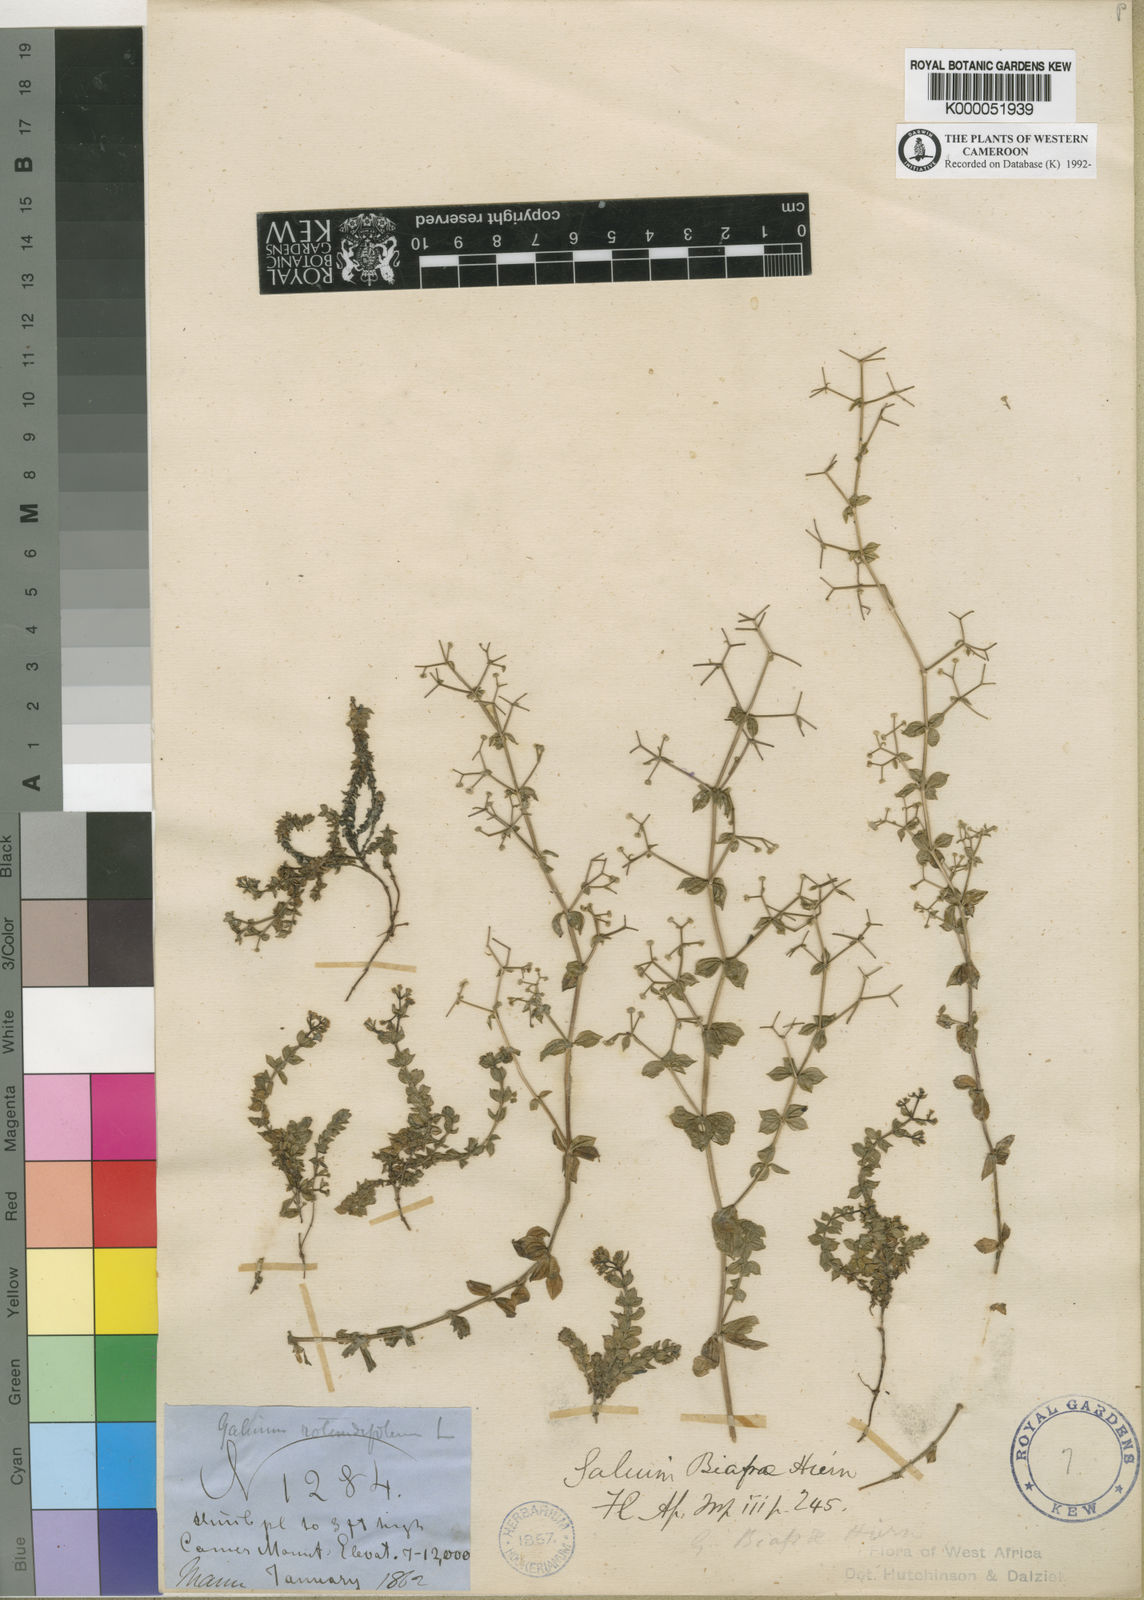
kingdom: Plantae
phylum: Tracheophyta
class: Magnoliopsida
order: Gentianales
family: Rubiaceae
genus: Galium
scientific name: Galium thunbergianum
